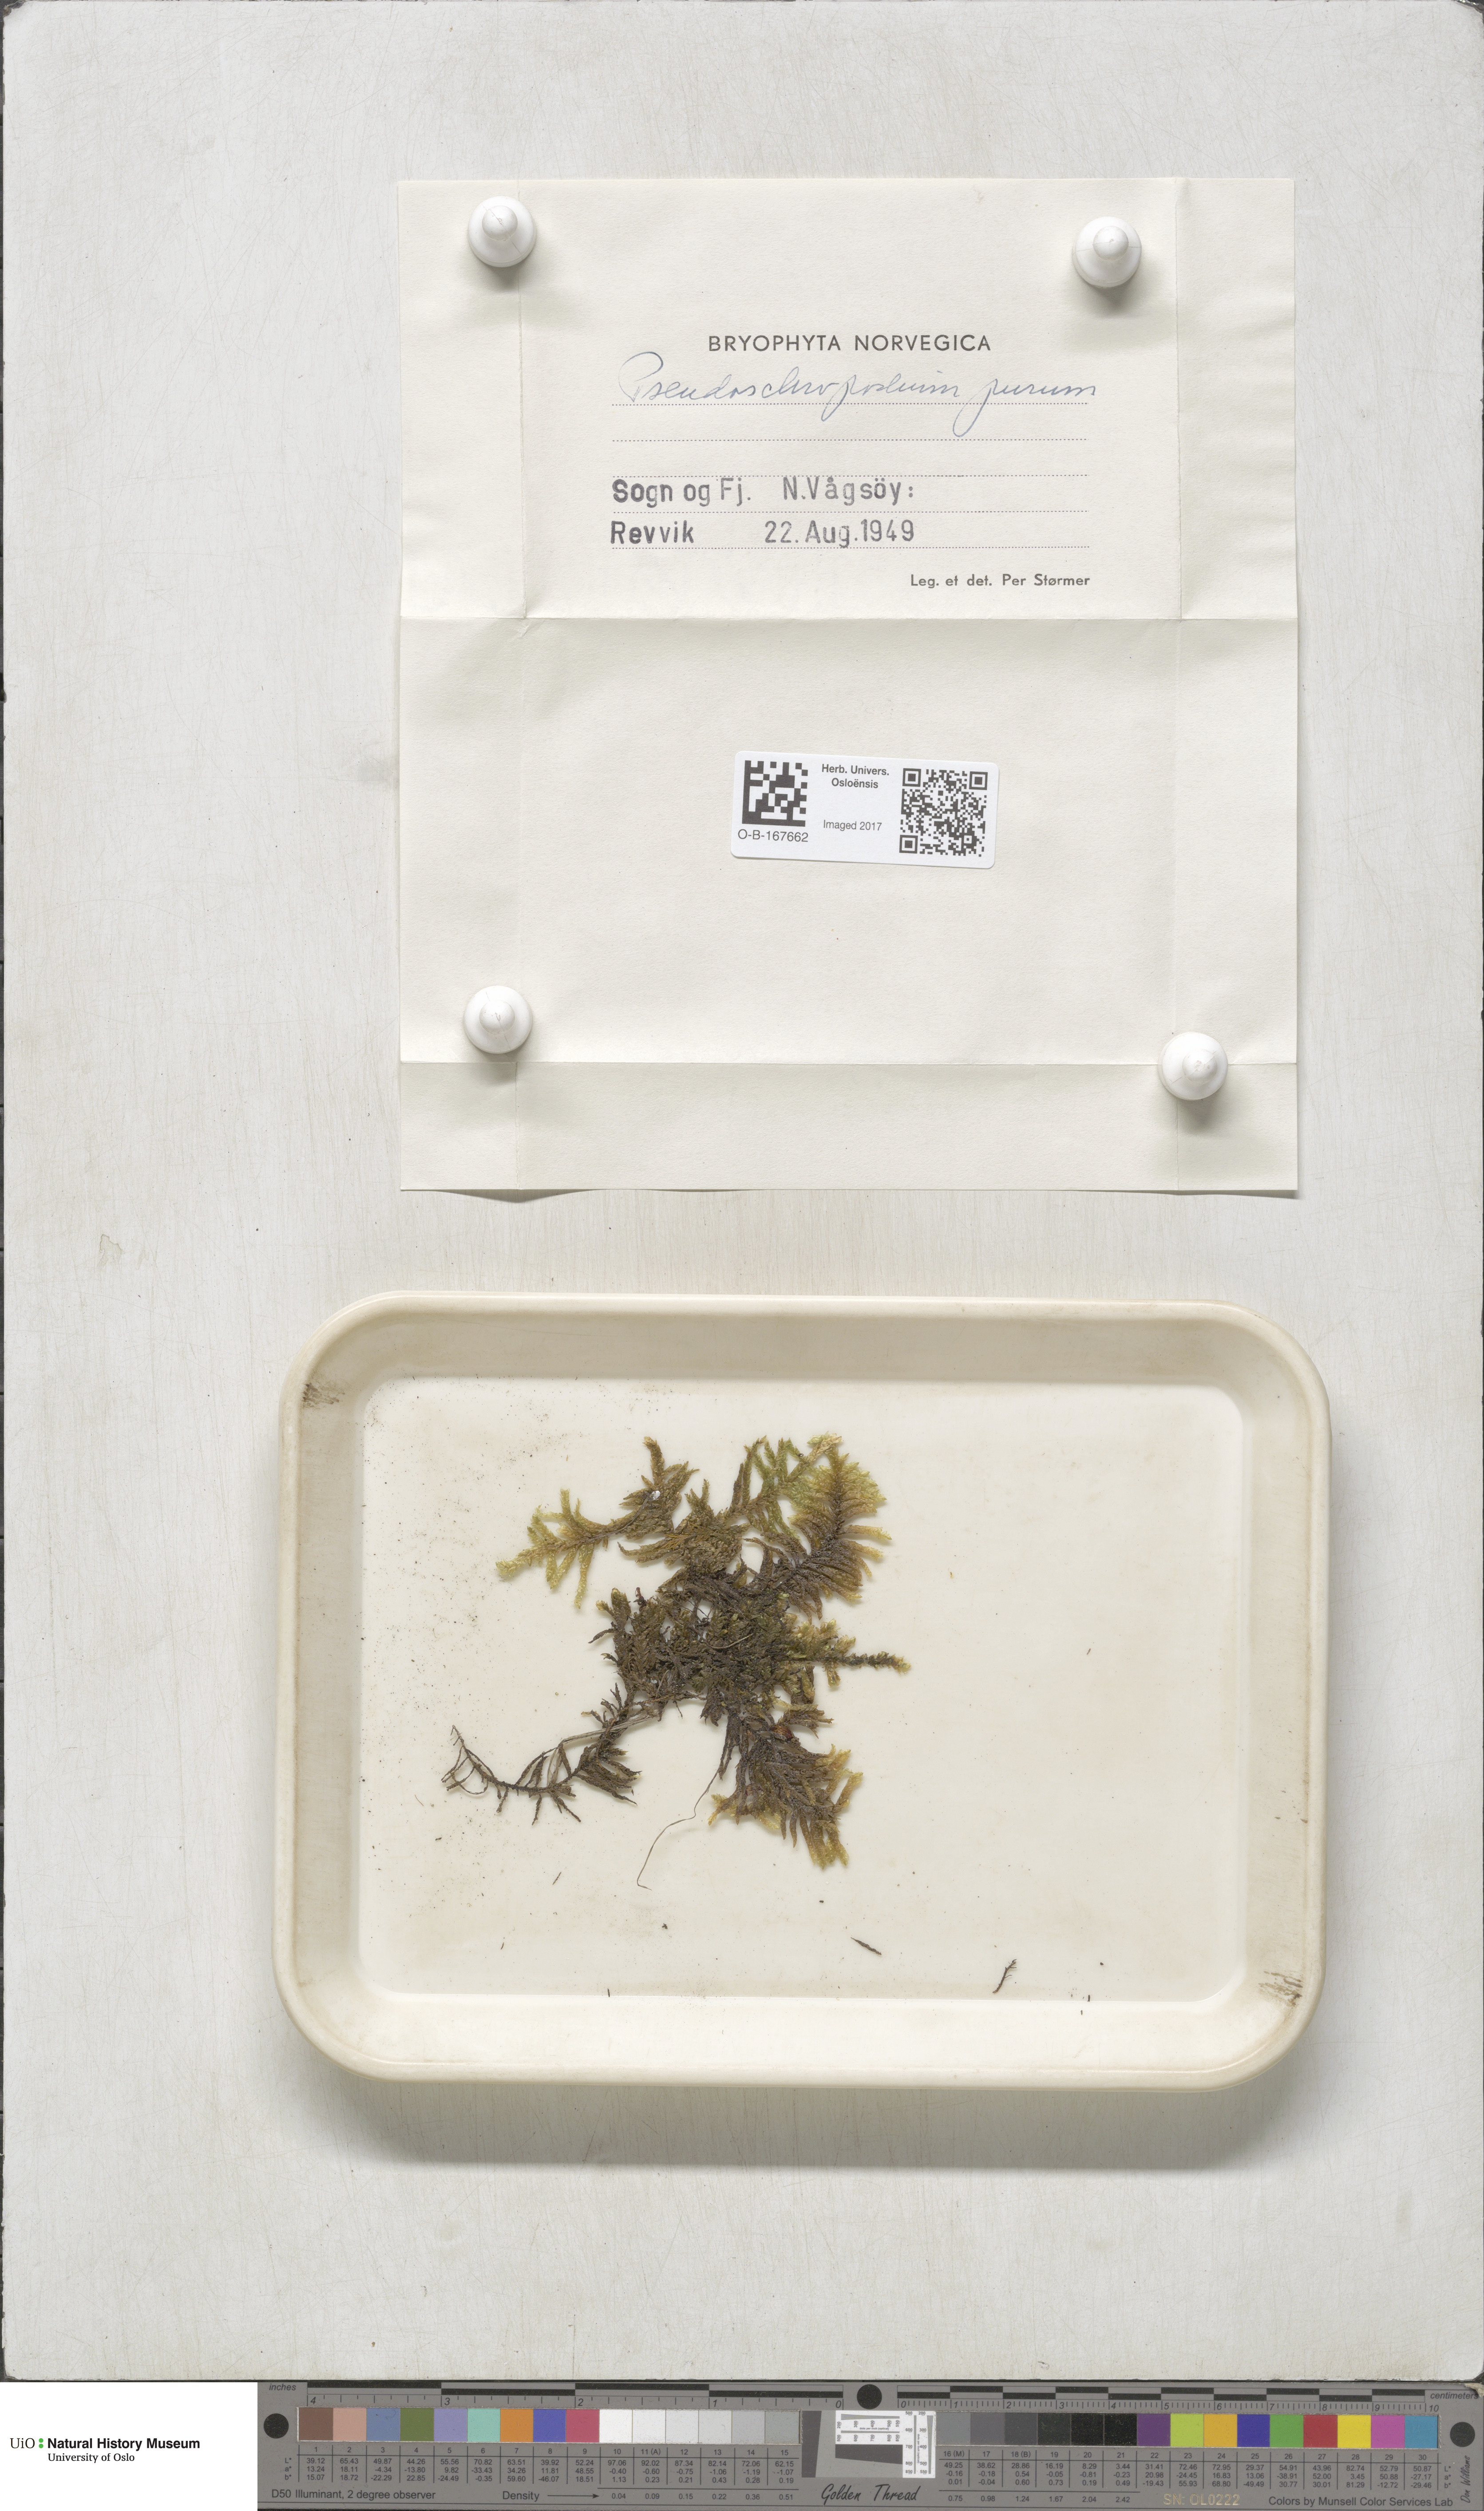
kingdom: Plantae
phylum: Bryophyta
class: Bryopsida
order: Hypnales
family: Brachytheciaceae
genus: Pseudoscleropodium
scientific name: Pseudoscleropodium purum
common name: Neat feather-moss
